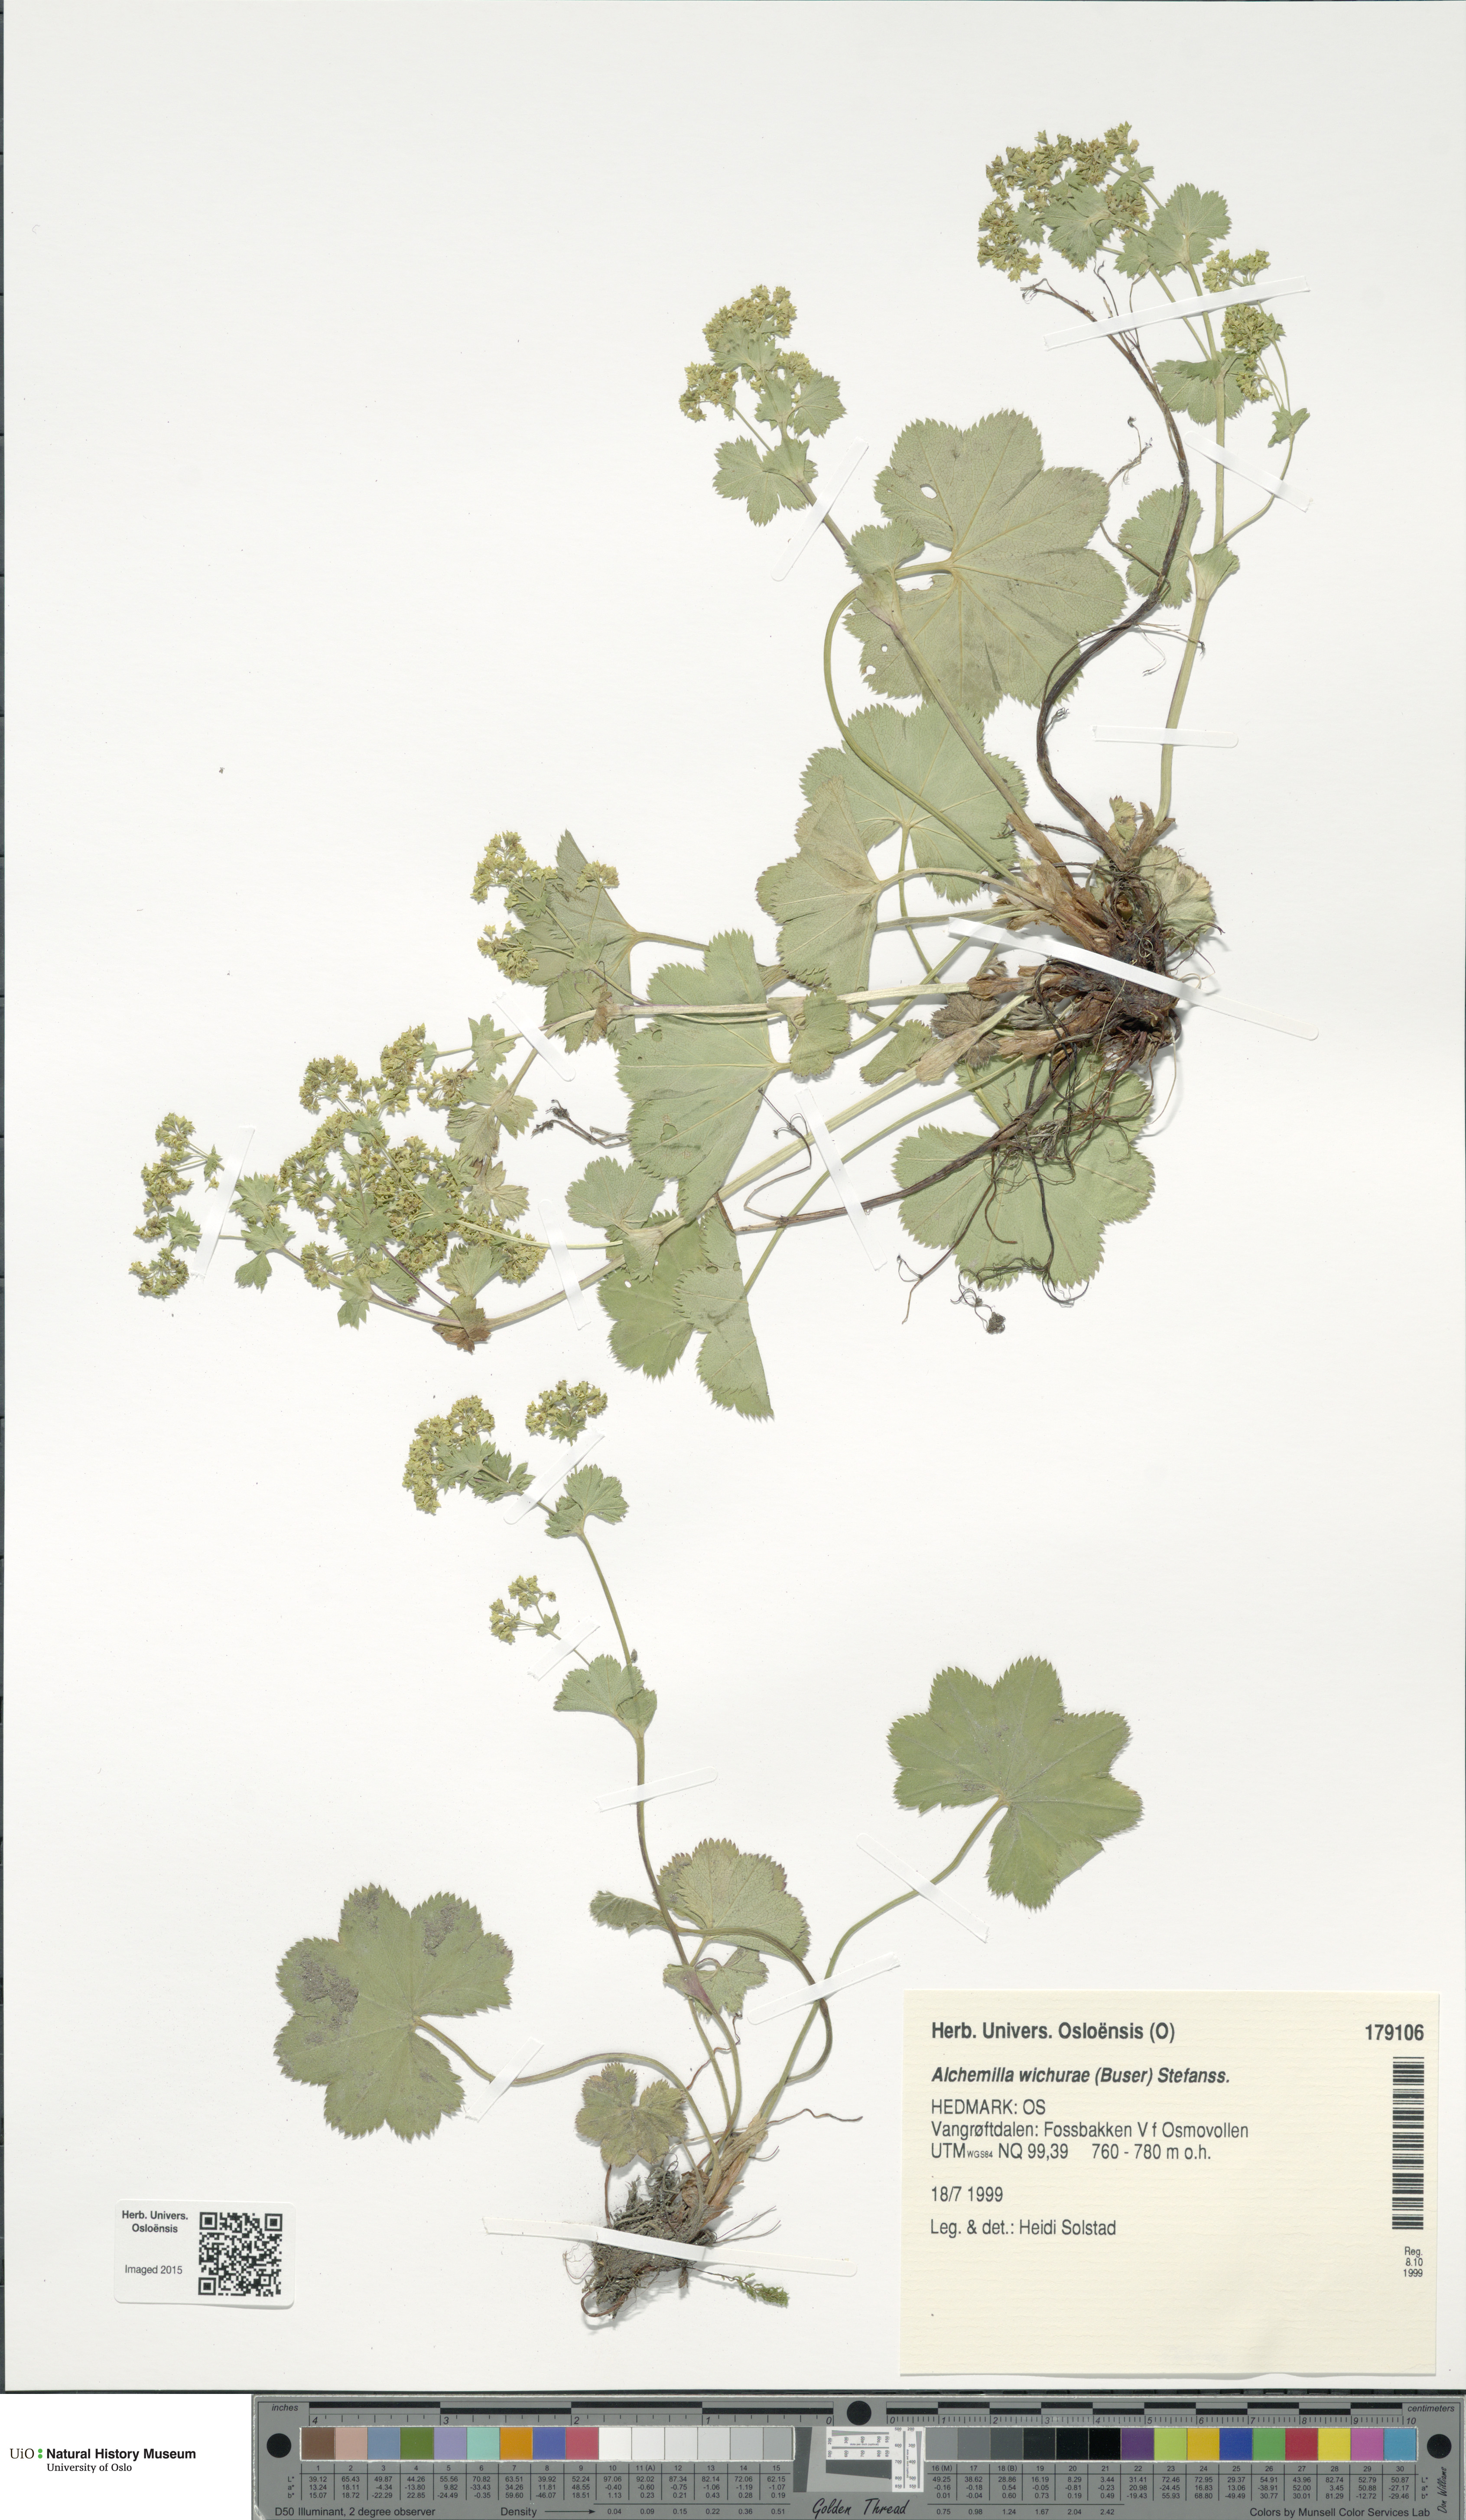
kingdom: Plantae
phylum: Tracheophyta
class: Magnoliopsida
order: Rosales
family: Rosaceae
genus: Alchemilla
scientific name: Alchemilla wichurae
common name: Rock lady's mantle
